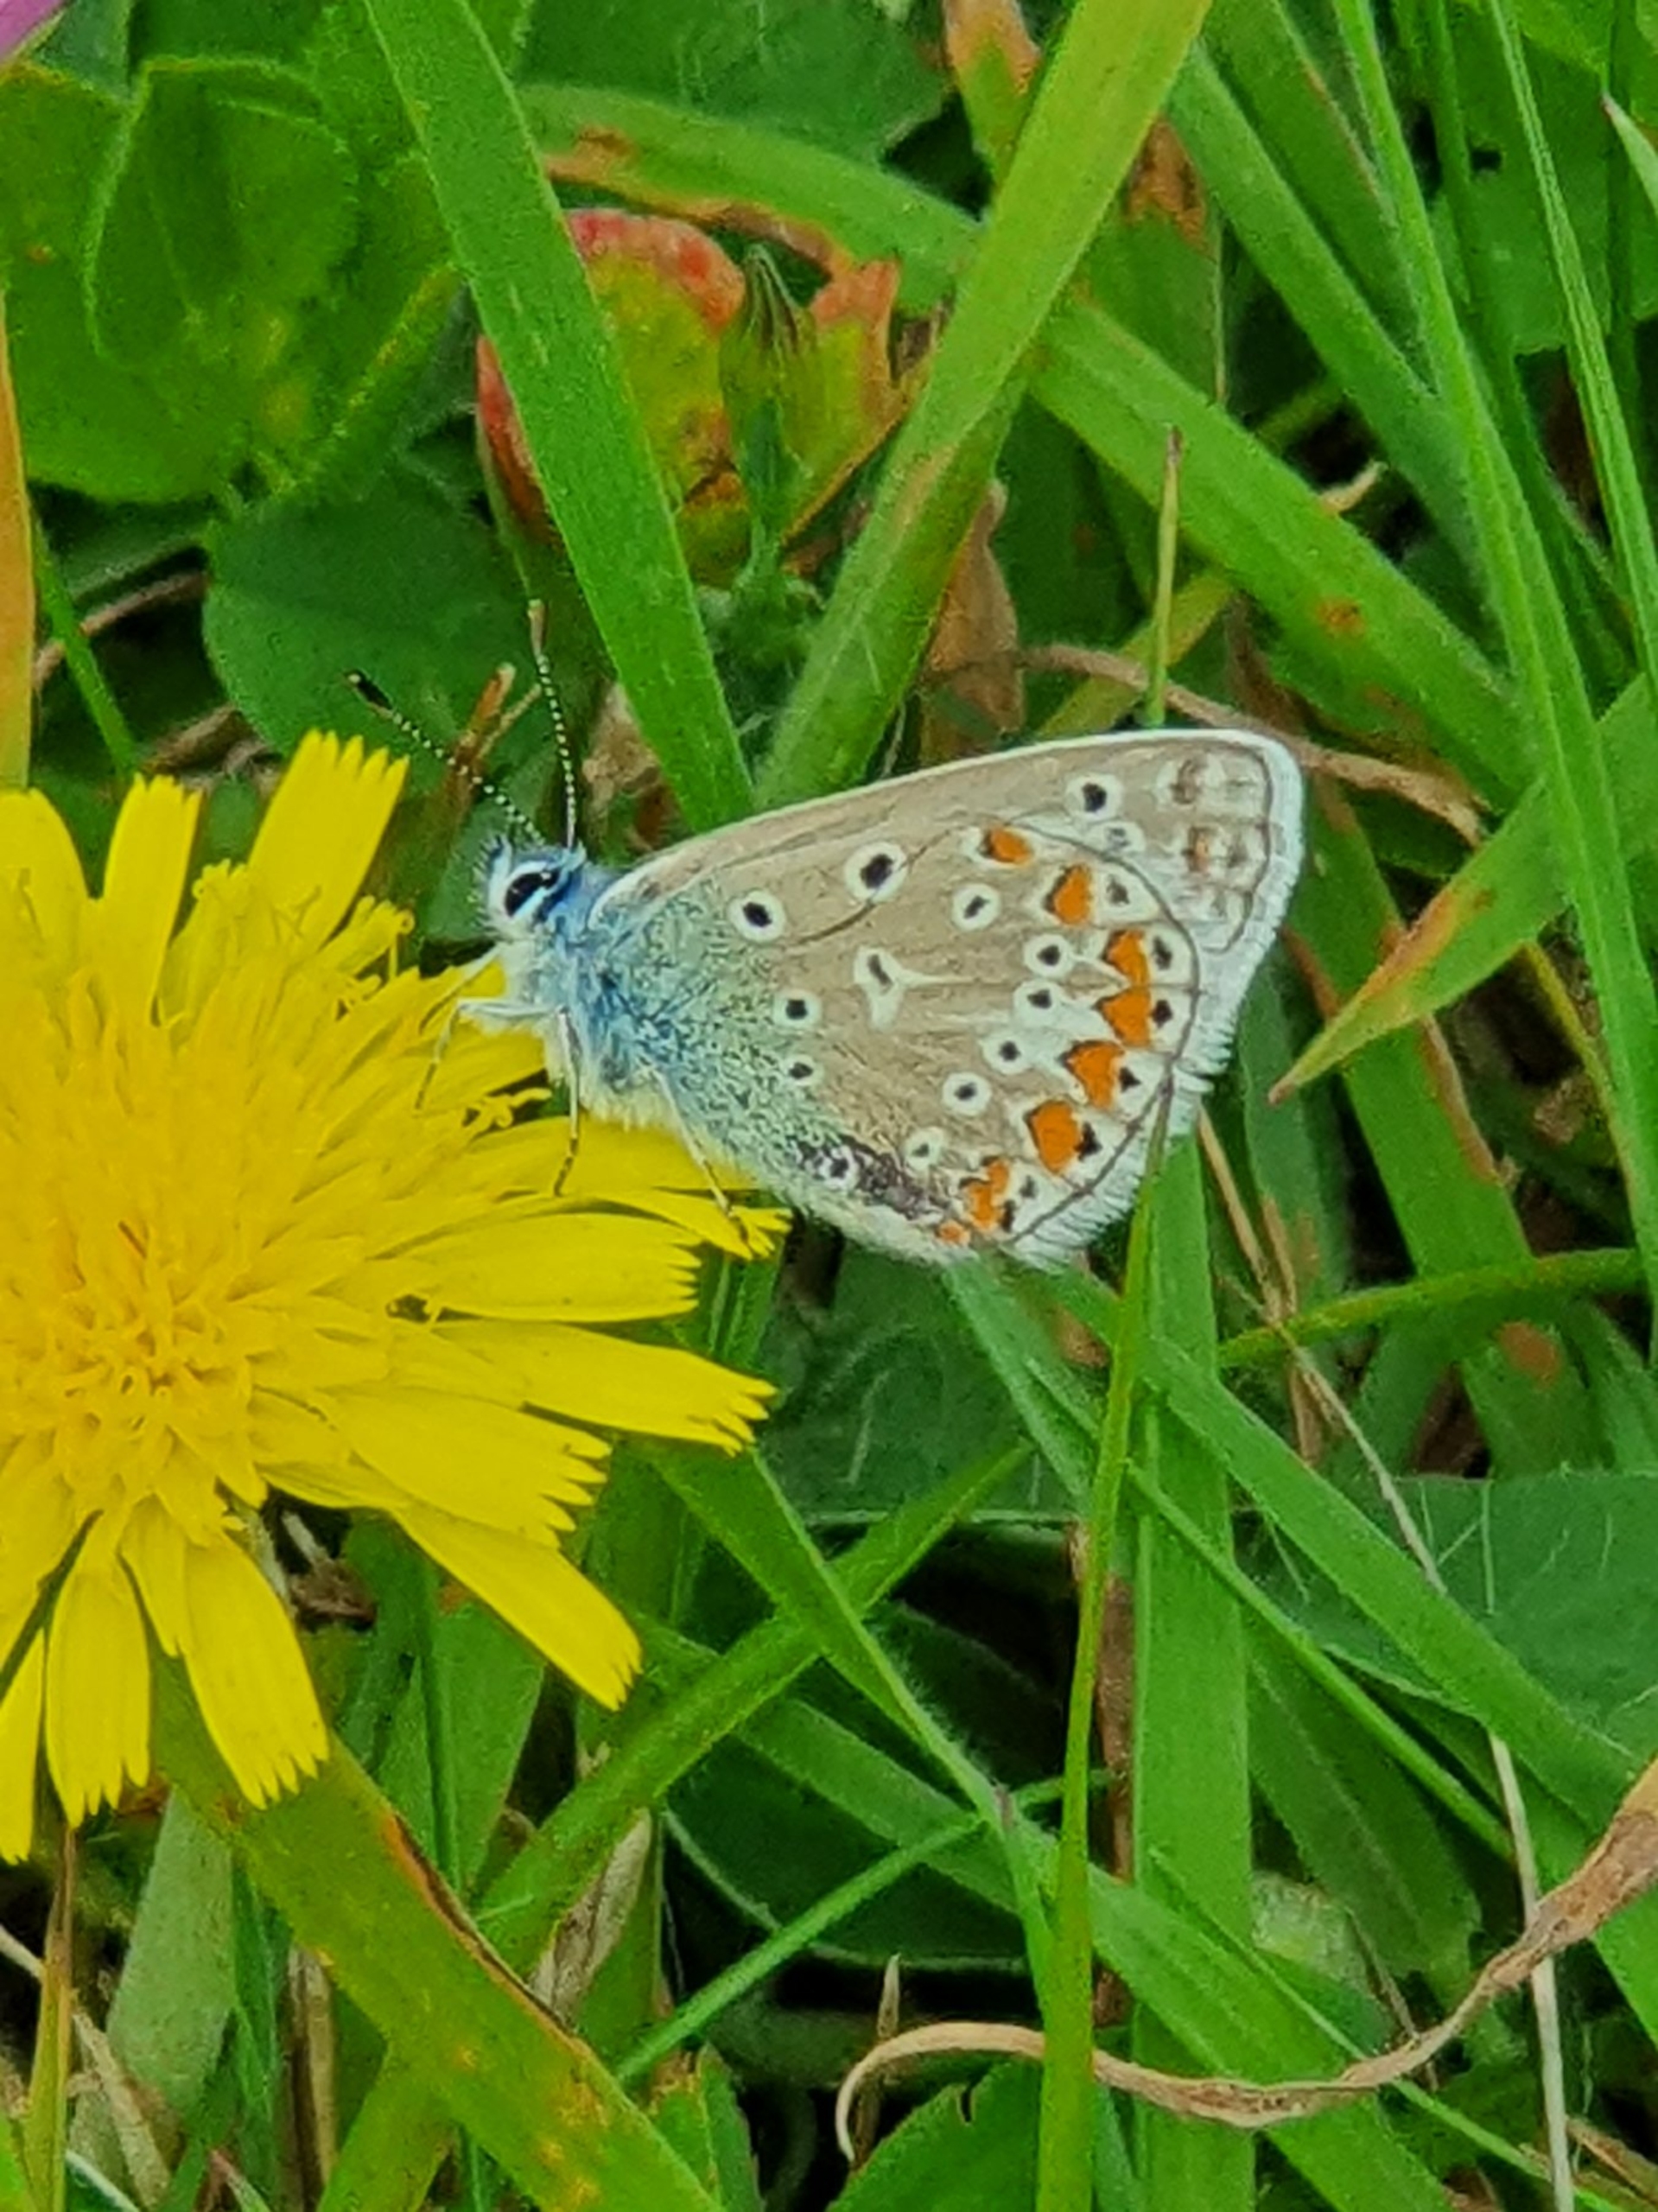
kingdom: Animalia
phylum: Arthropoda
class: Insecta
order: Lepidoptera
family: Lycaenidae
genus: Polyommatus
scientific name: Polyommatus icarus
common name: Almindelig blåfugl
